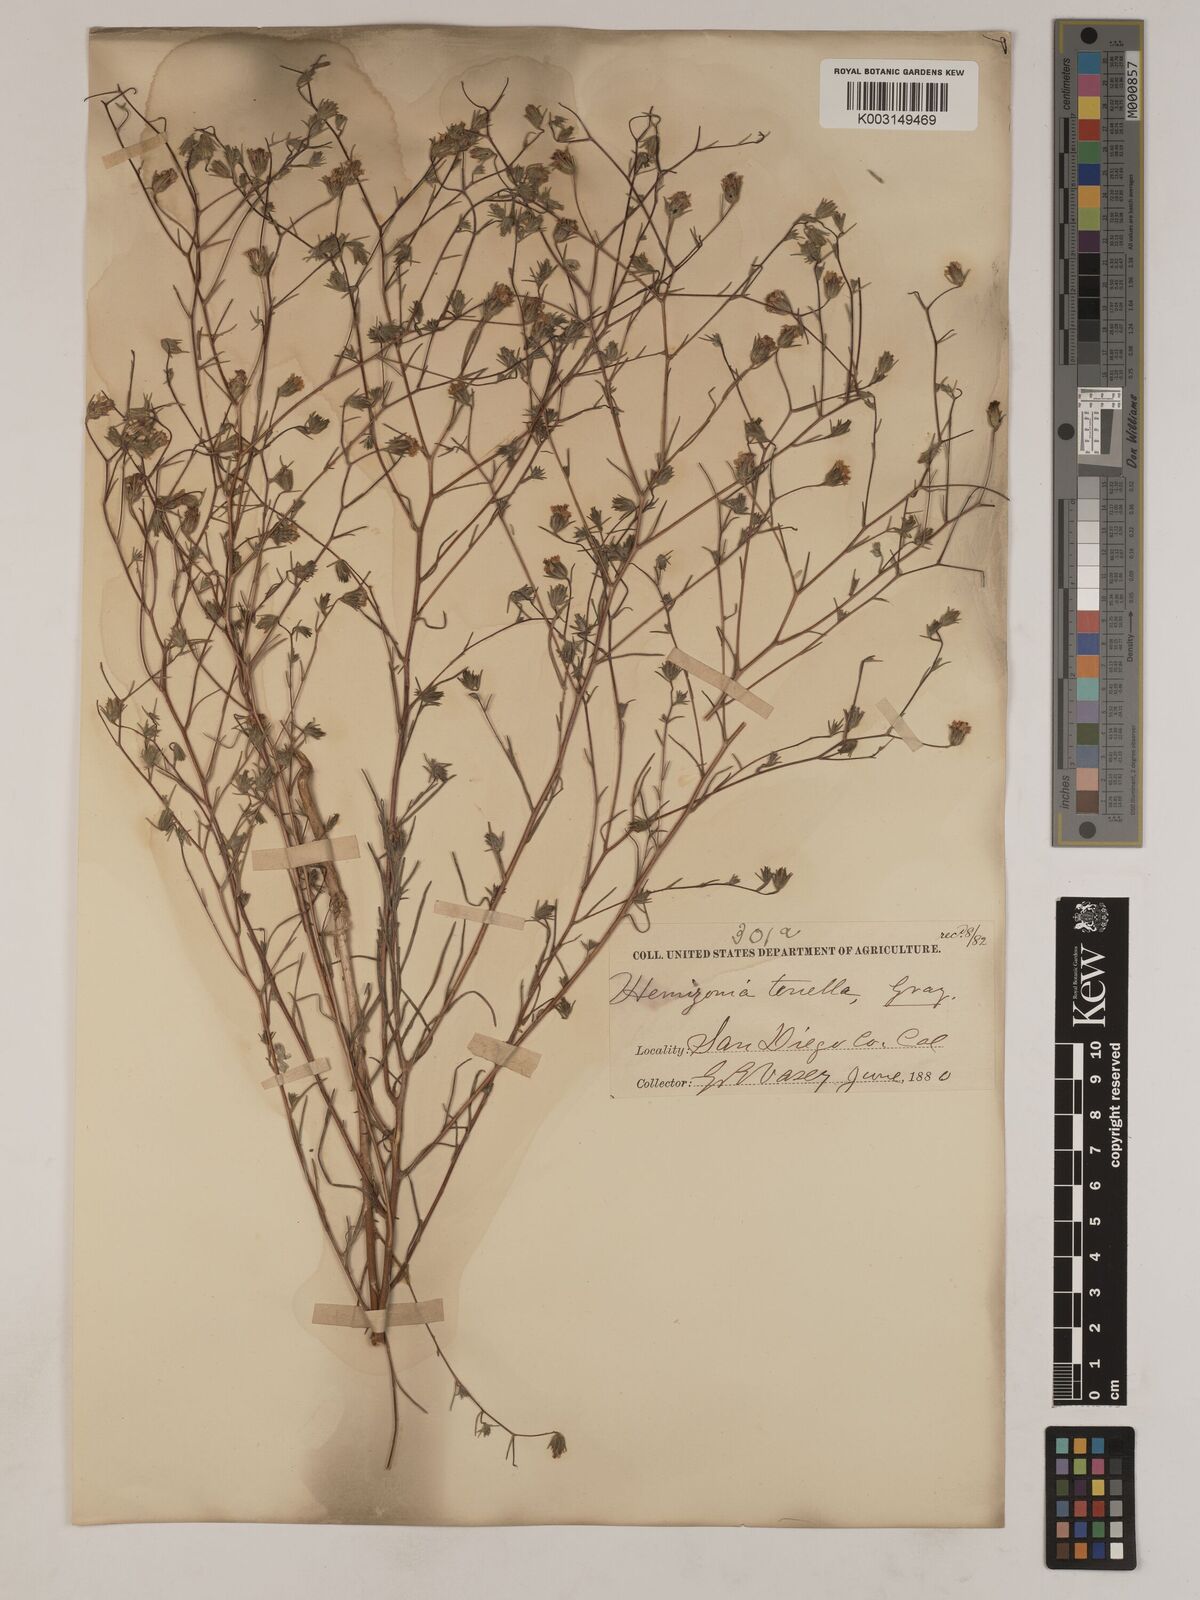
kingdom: Plantae
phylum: Tracheophyta
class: Magnoliopsida
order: Asterales
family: Asteraceae
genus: Osmadenia
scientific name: Osmadenia tenella
